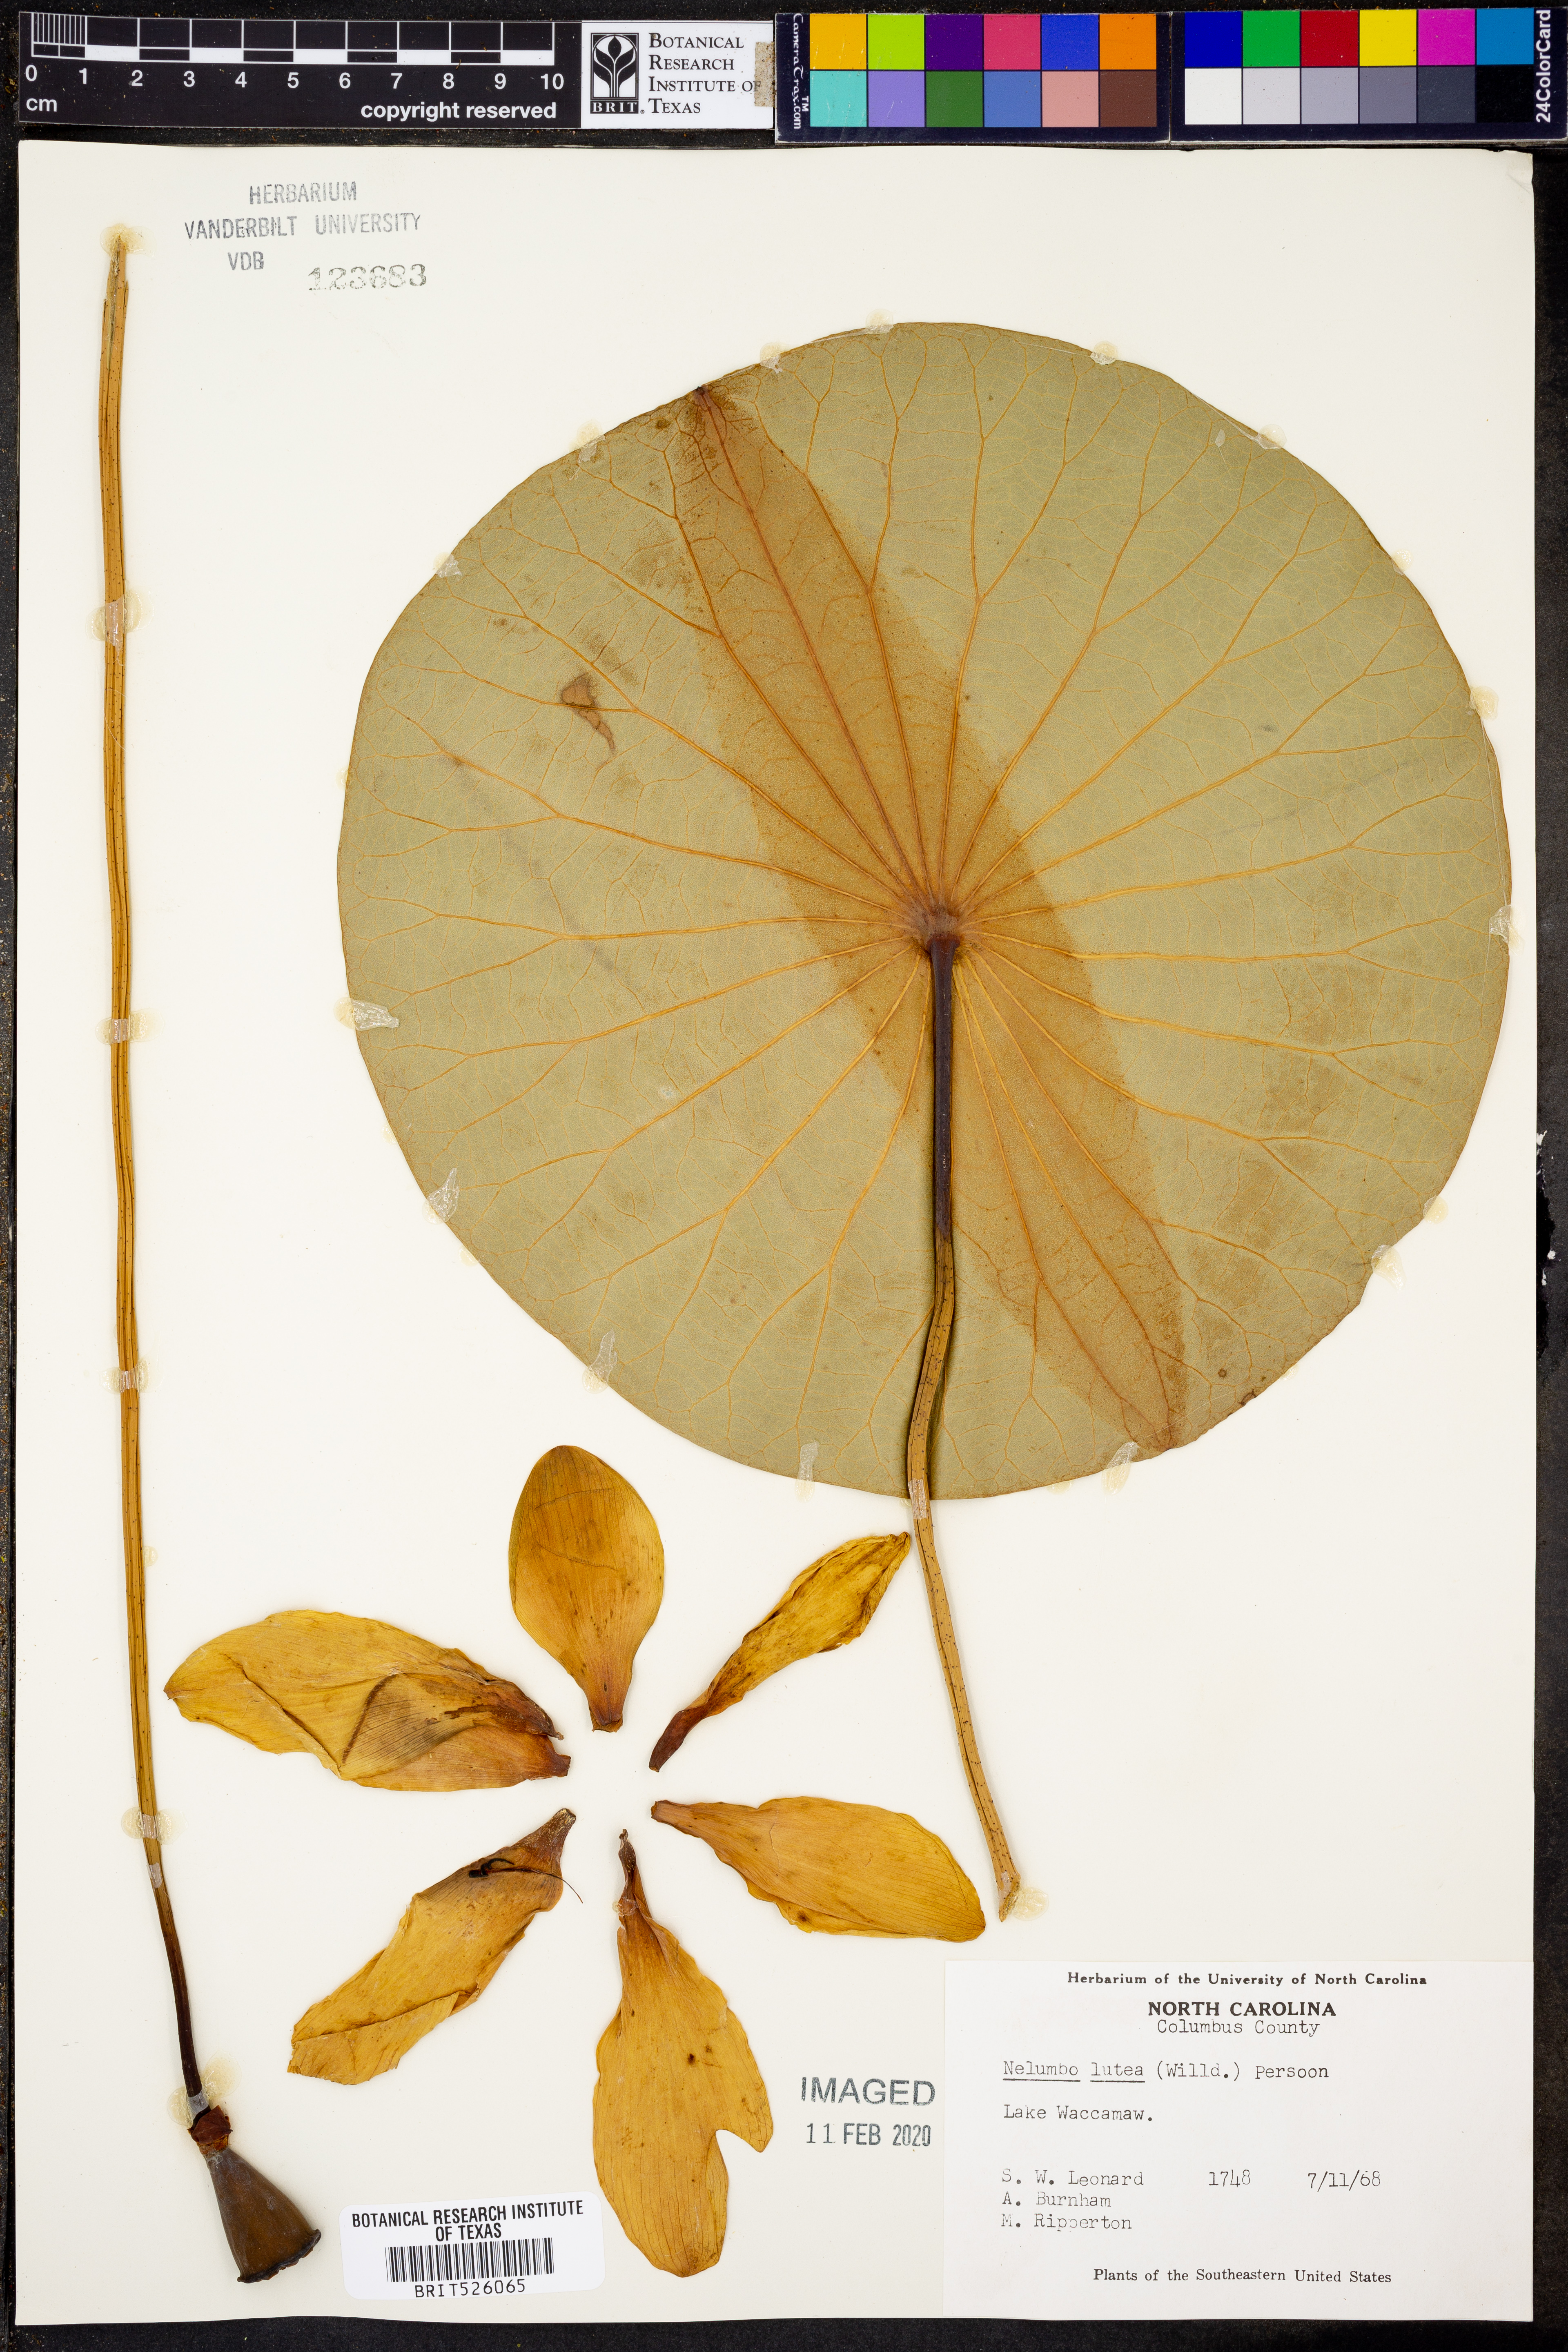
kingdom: Plantae
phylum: Tracheophyta
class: Magnoliopsida
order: Proteales
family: Nelumbonaceae
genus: Nelumbo
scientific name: Nelumbo lutea
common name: American lotus
